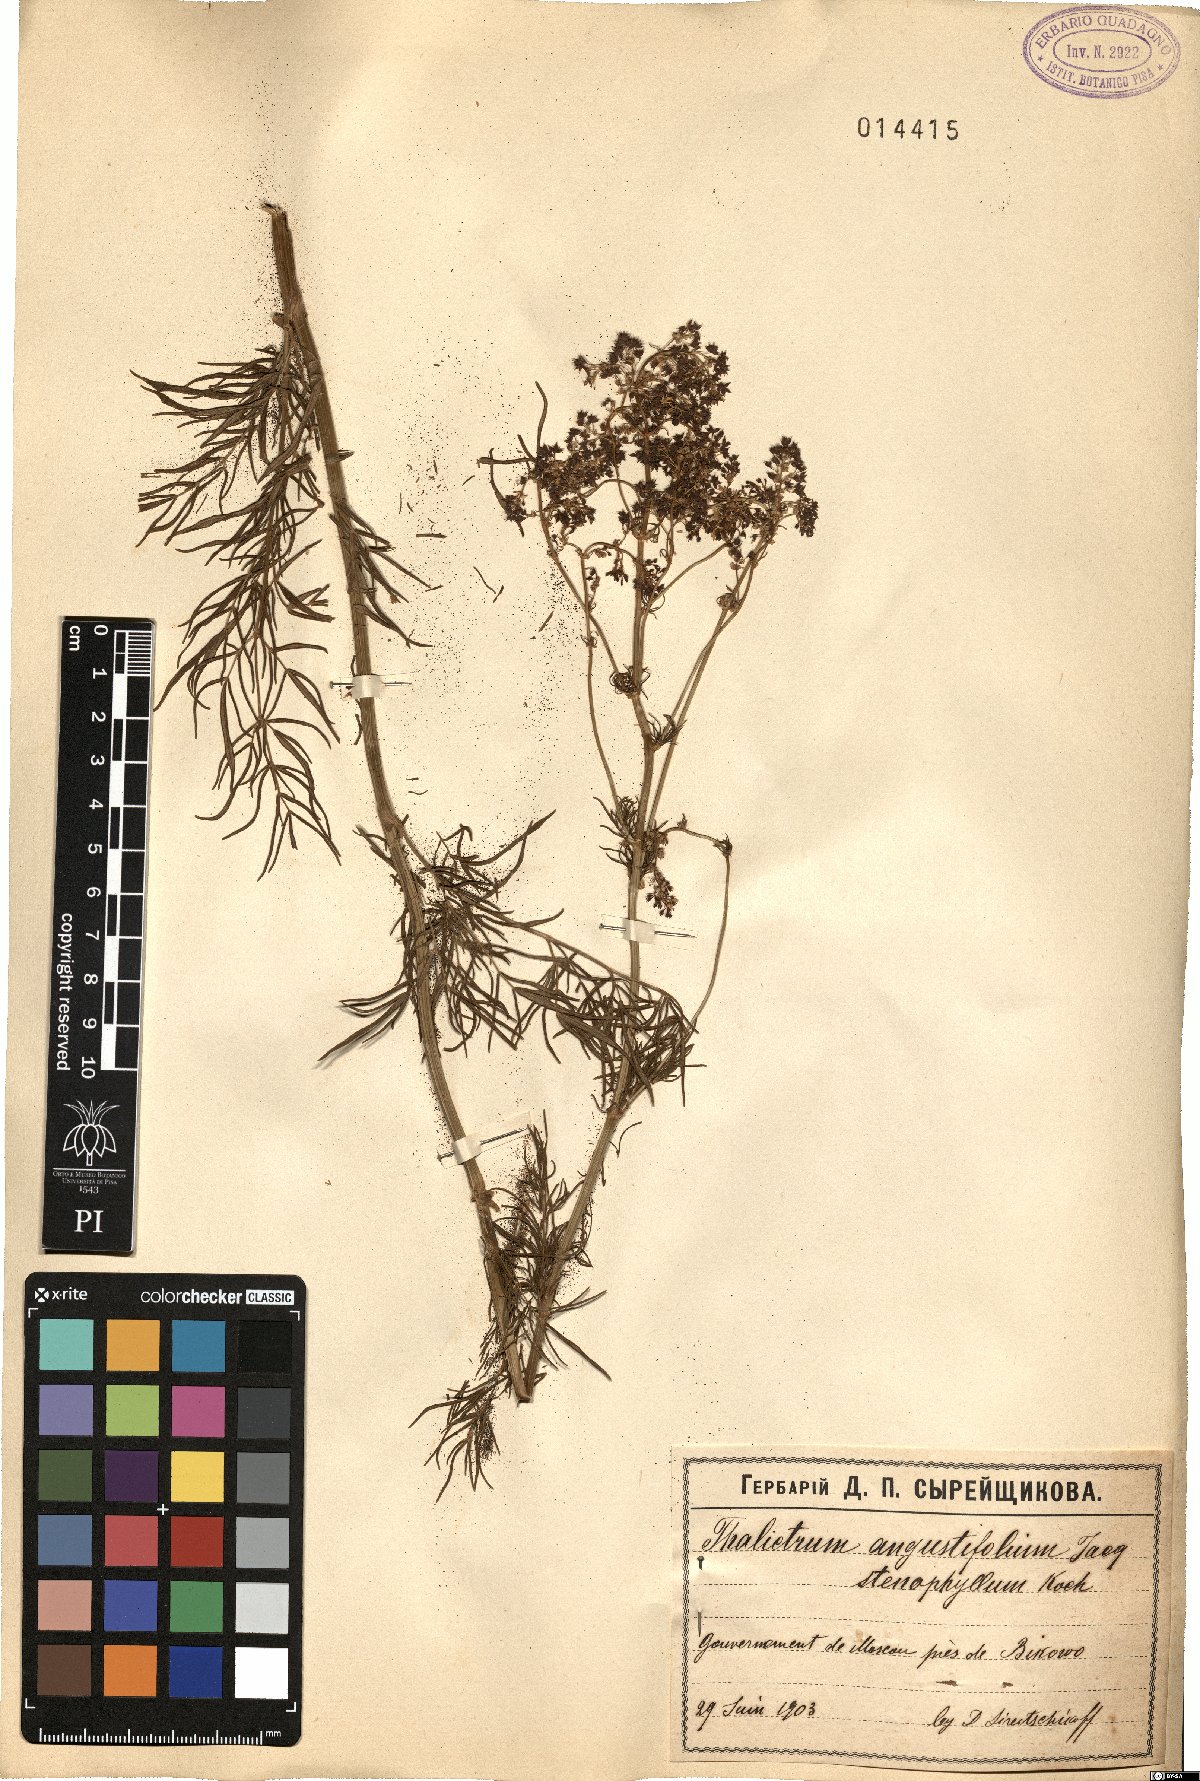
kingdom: Plantae
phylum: Tracheophyta
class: Magnoliopsida
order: Ranunculales
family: Ranunculaceae
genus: Thalictrum
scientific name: Thalictrum lucidum
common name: Shining meadow-rue
